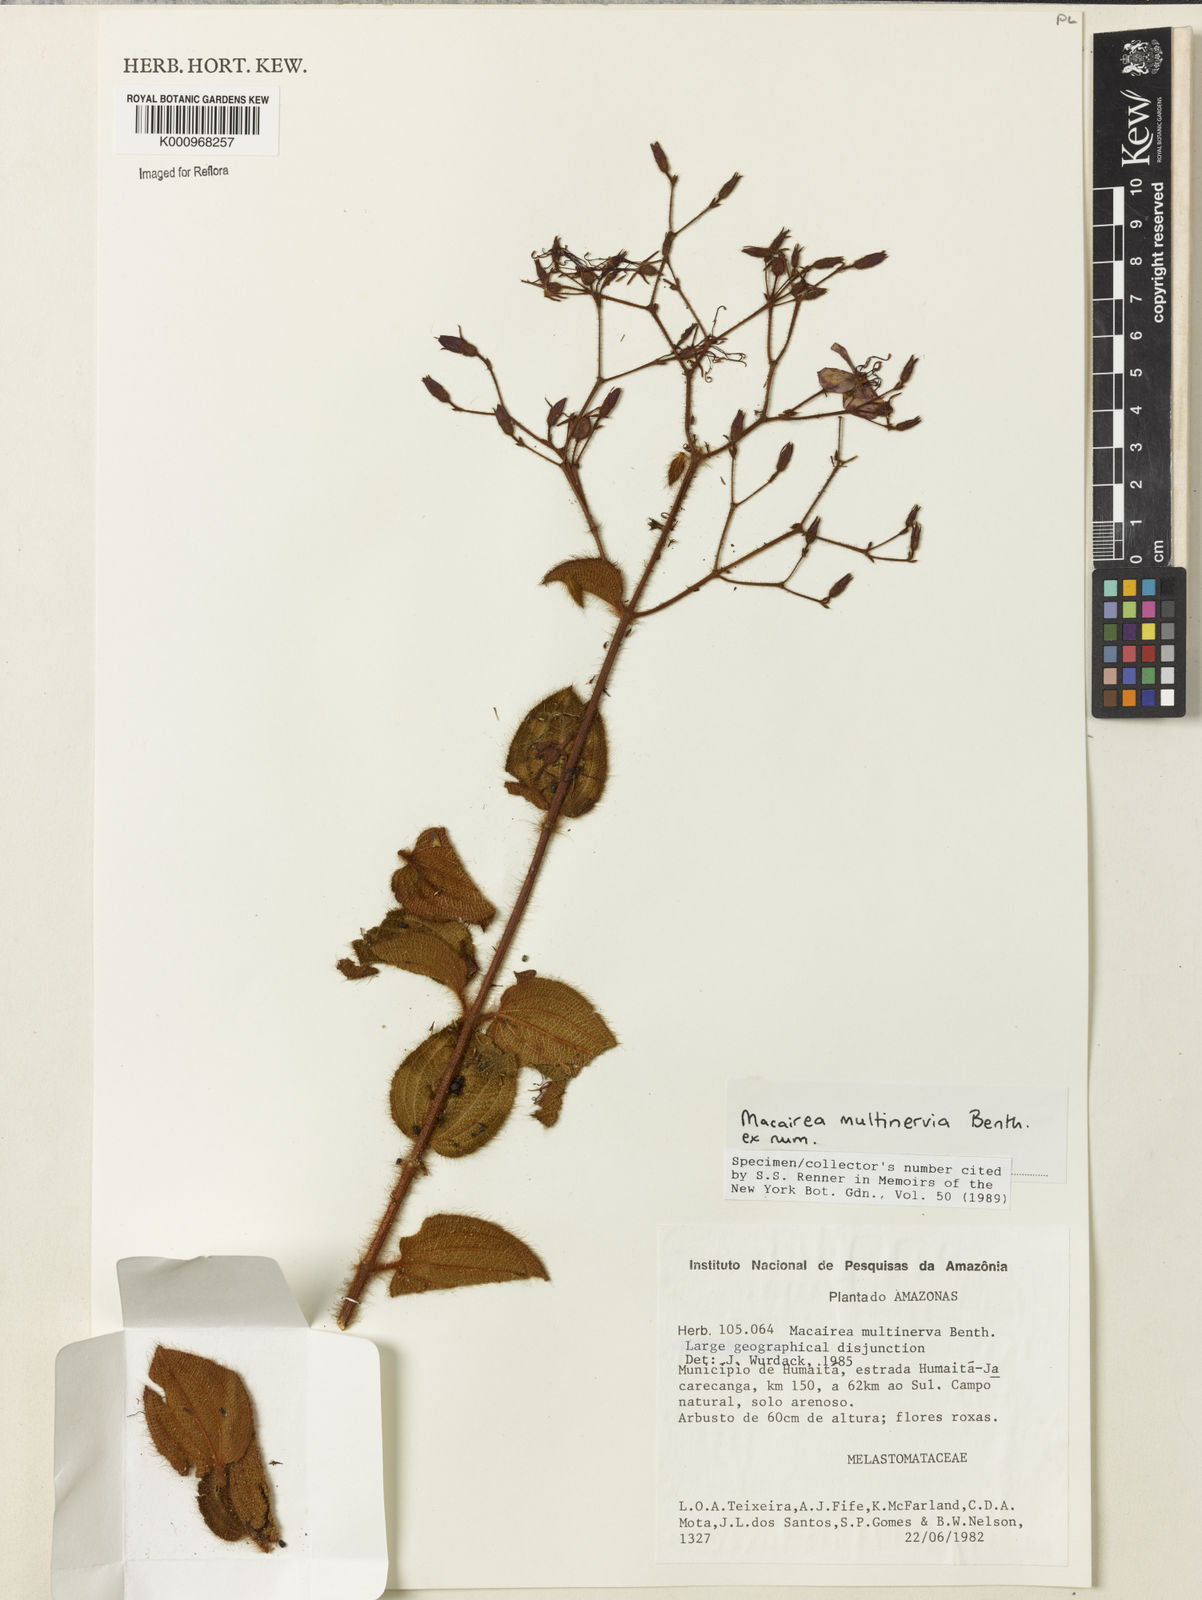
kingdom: Plantae
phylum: Tracheophyta
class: Magnoliopsida
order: Myrtales
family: Melastomataceae
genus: Macairea
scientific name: Macairea multinervia
